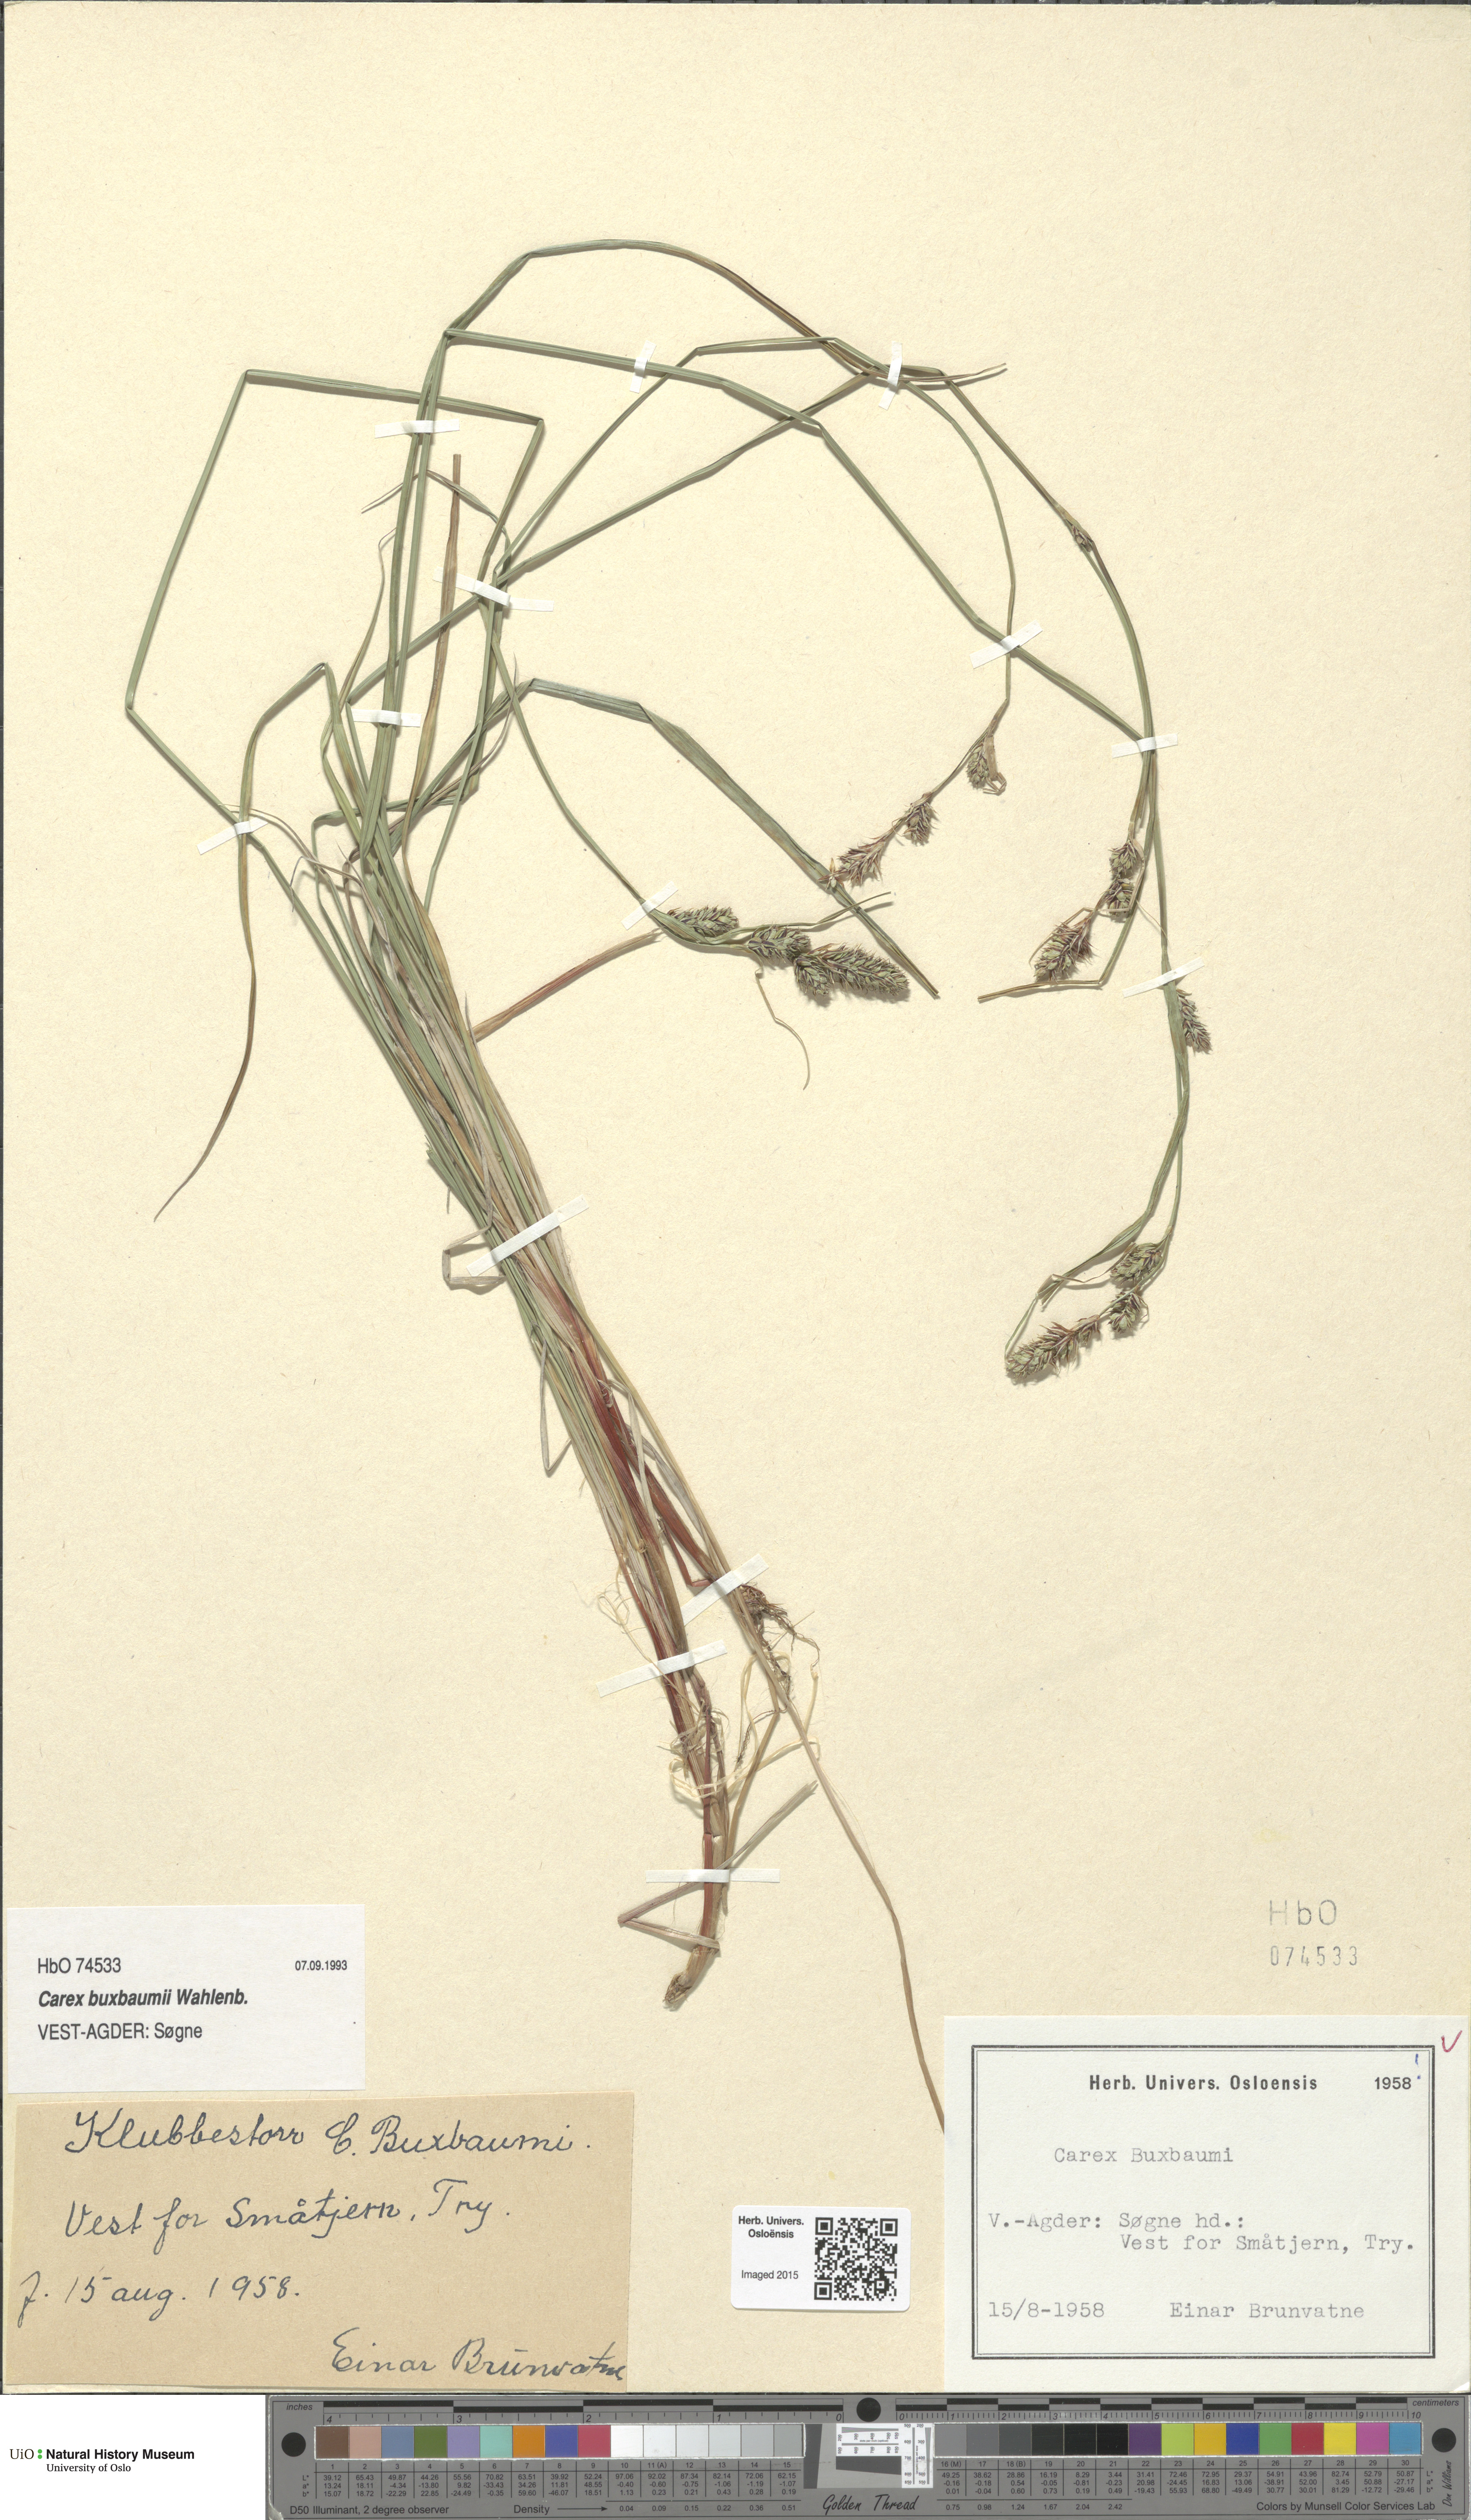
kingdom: Plantae
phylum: Tracheophyta
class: Liliopsida
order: Poales
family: Cyperaceae
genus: Carex
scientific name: Carex buxbaumii
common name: Club sedge
